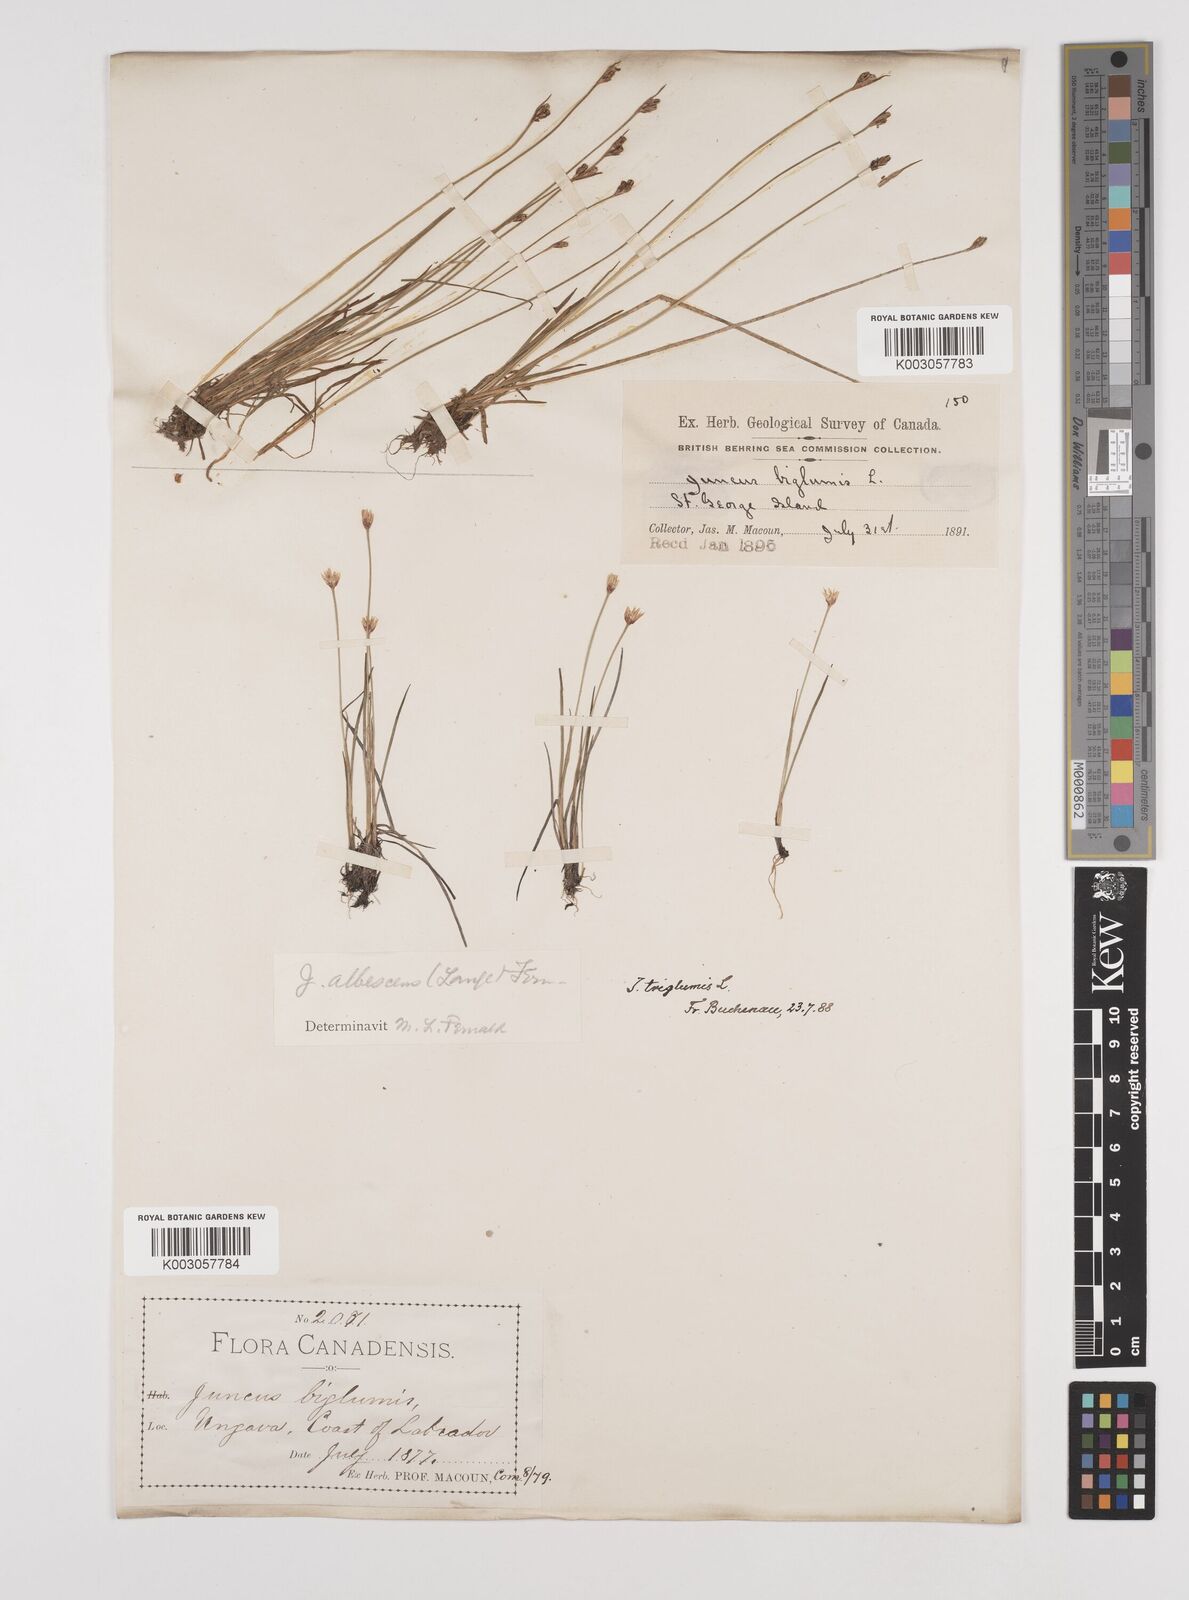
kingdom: Plantae
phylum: Tracheophyta
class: Liliopsida
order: Poales
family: Juncaceae
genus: Juncus
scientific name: Juncus biglumis
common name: Two-flowered rush
